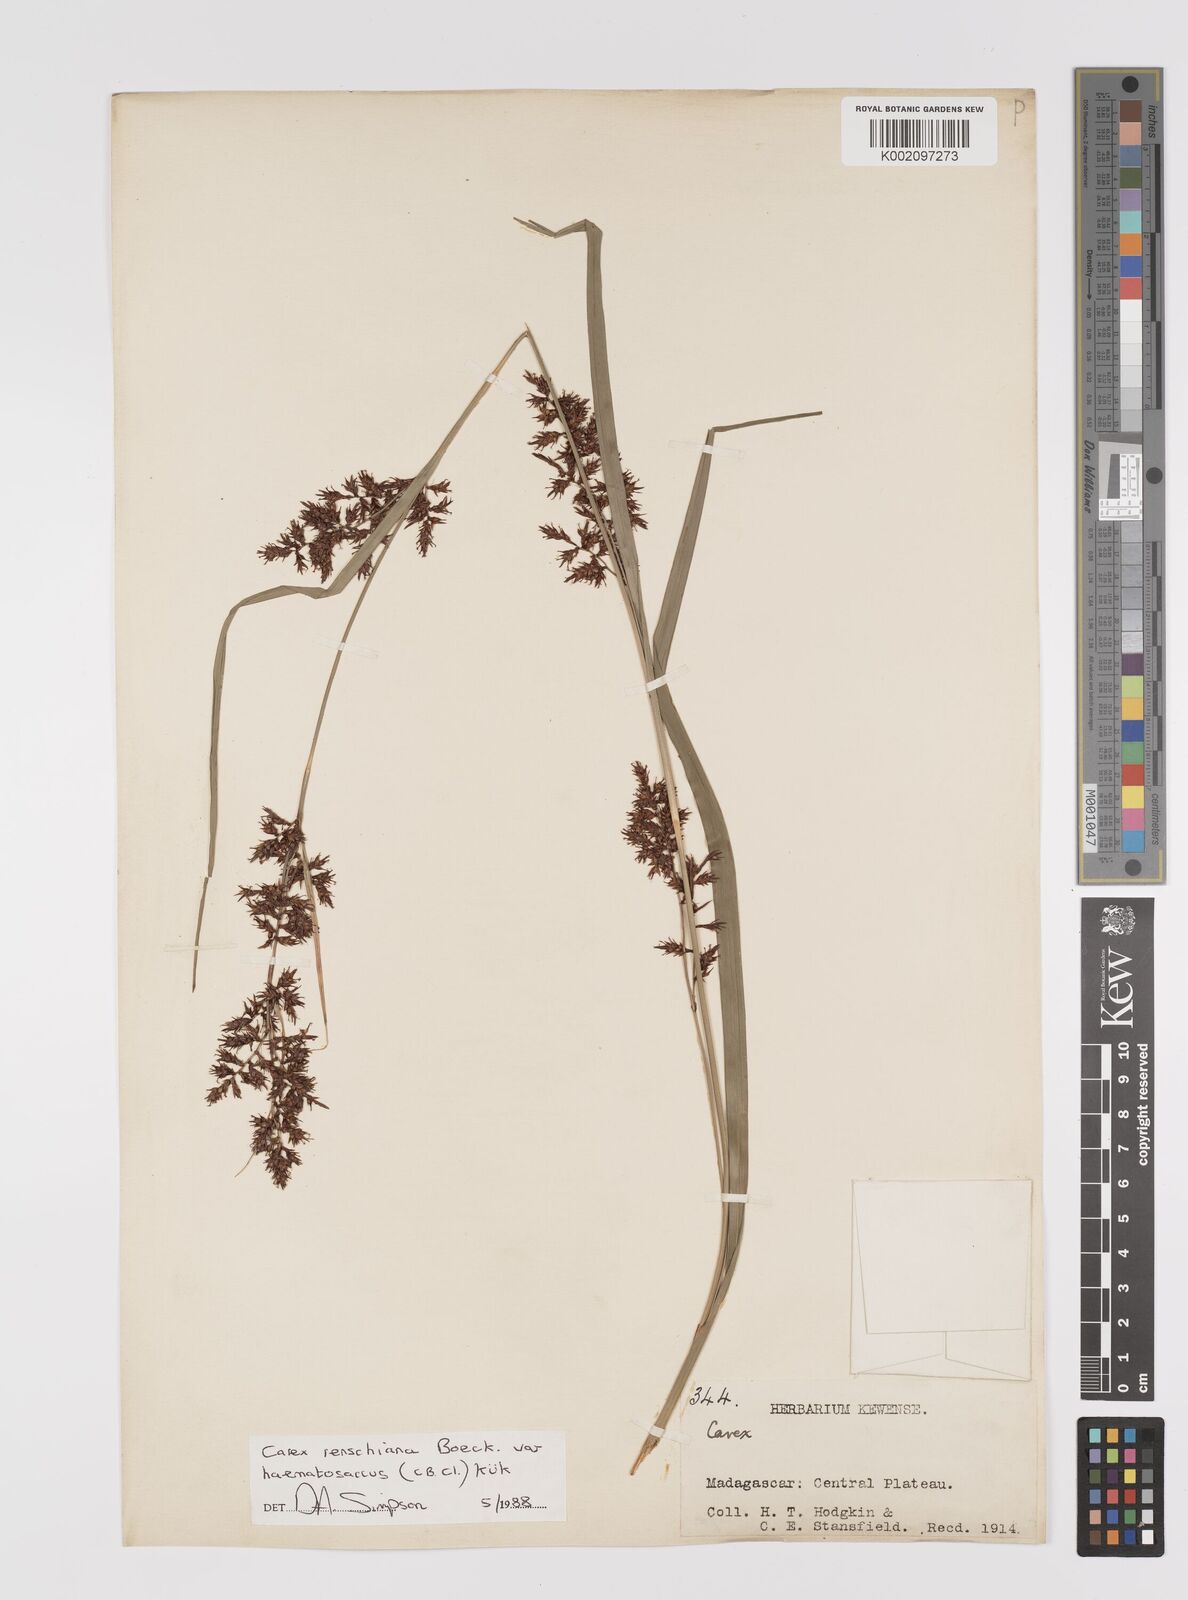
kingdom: Plantae
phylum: Tracheophyta
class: Liliopsida
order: Poales
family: Cyperaceae
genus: Carex
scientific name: Carex renschiana
